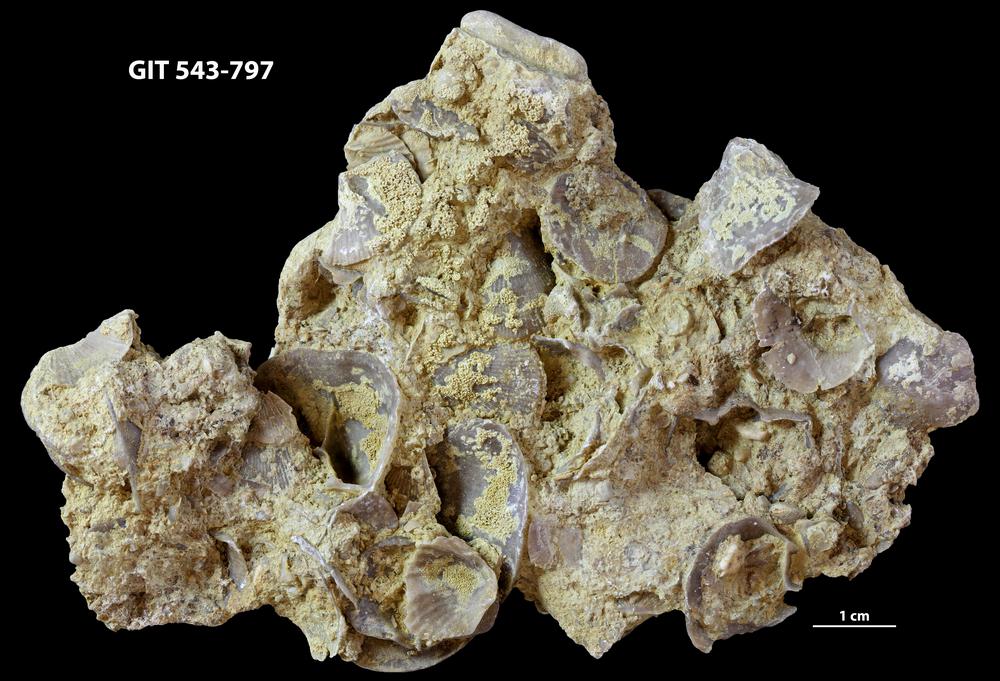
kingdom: Animalia
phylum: Brachiopoda
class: Rhynchonellata
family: Clitambonitidae
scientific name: Clitambonitidae
